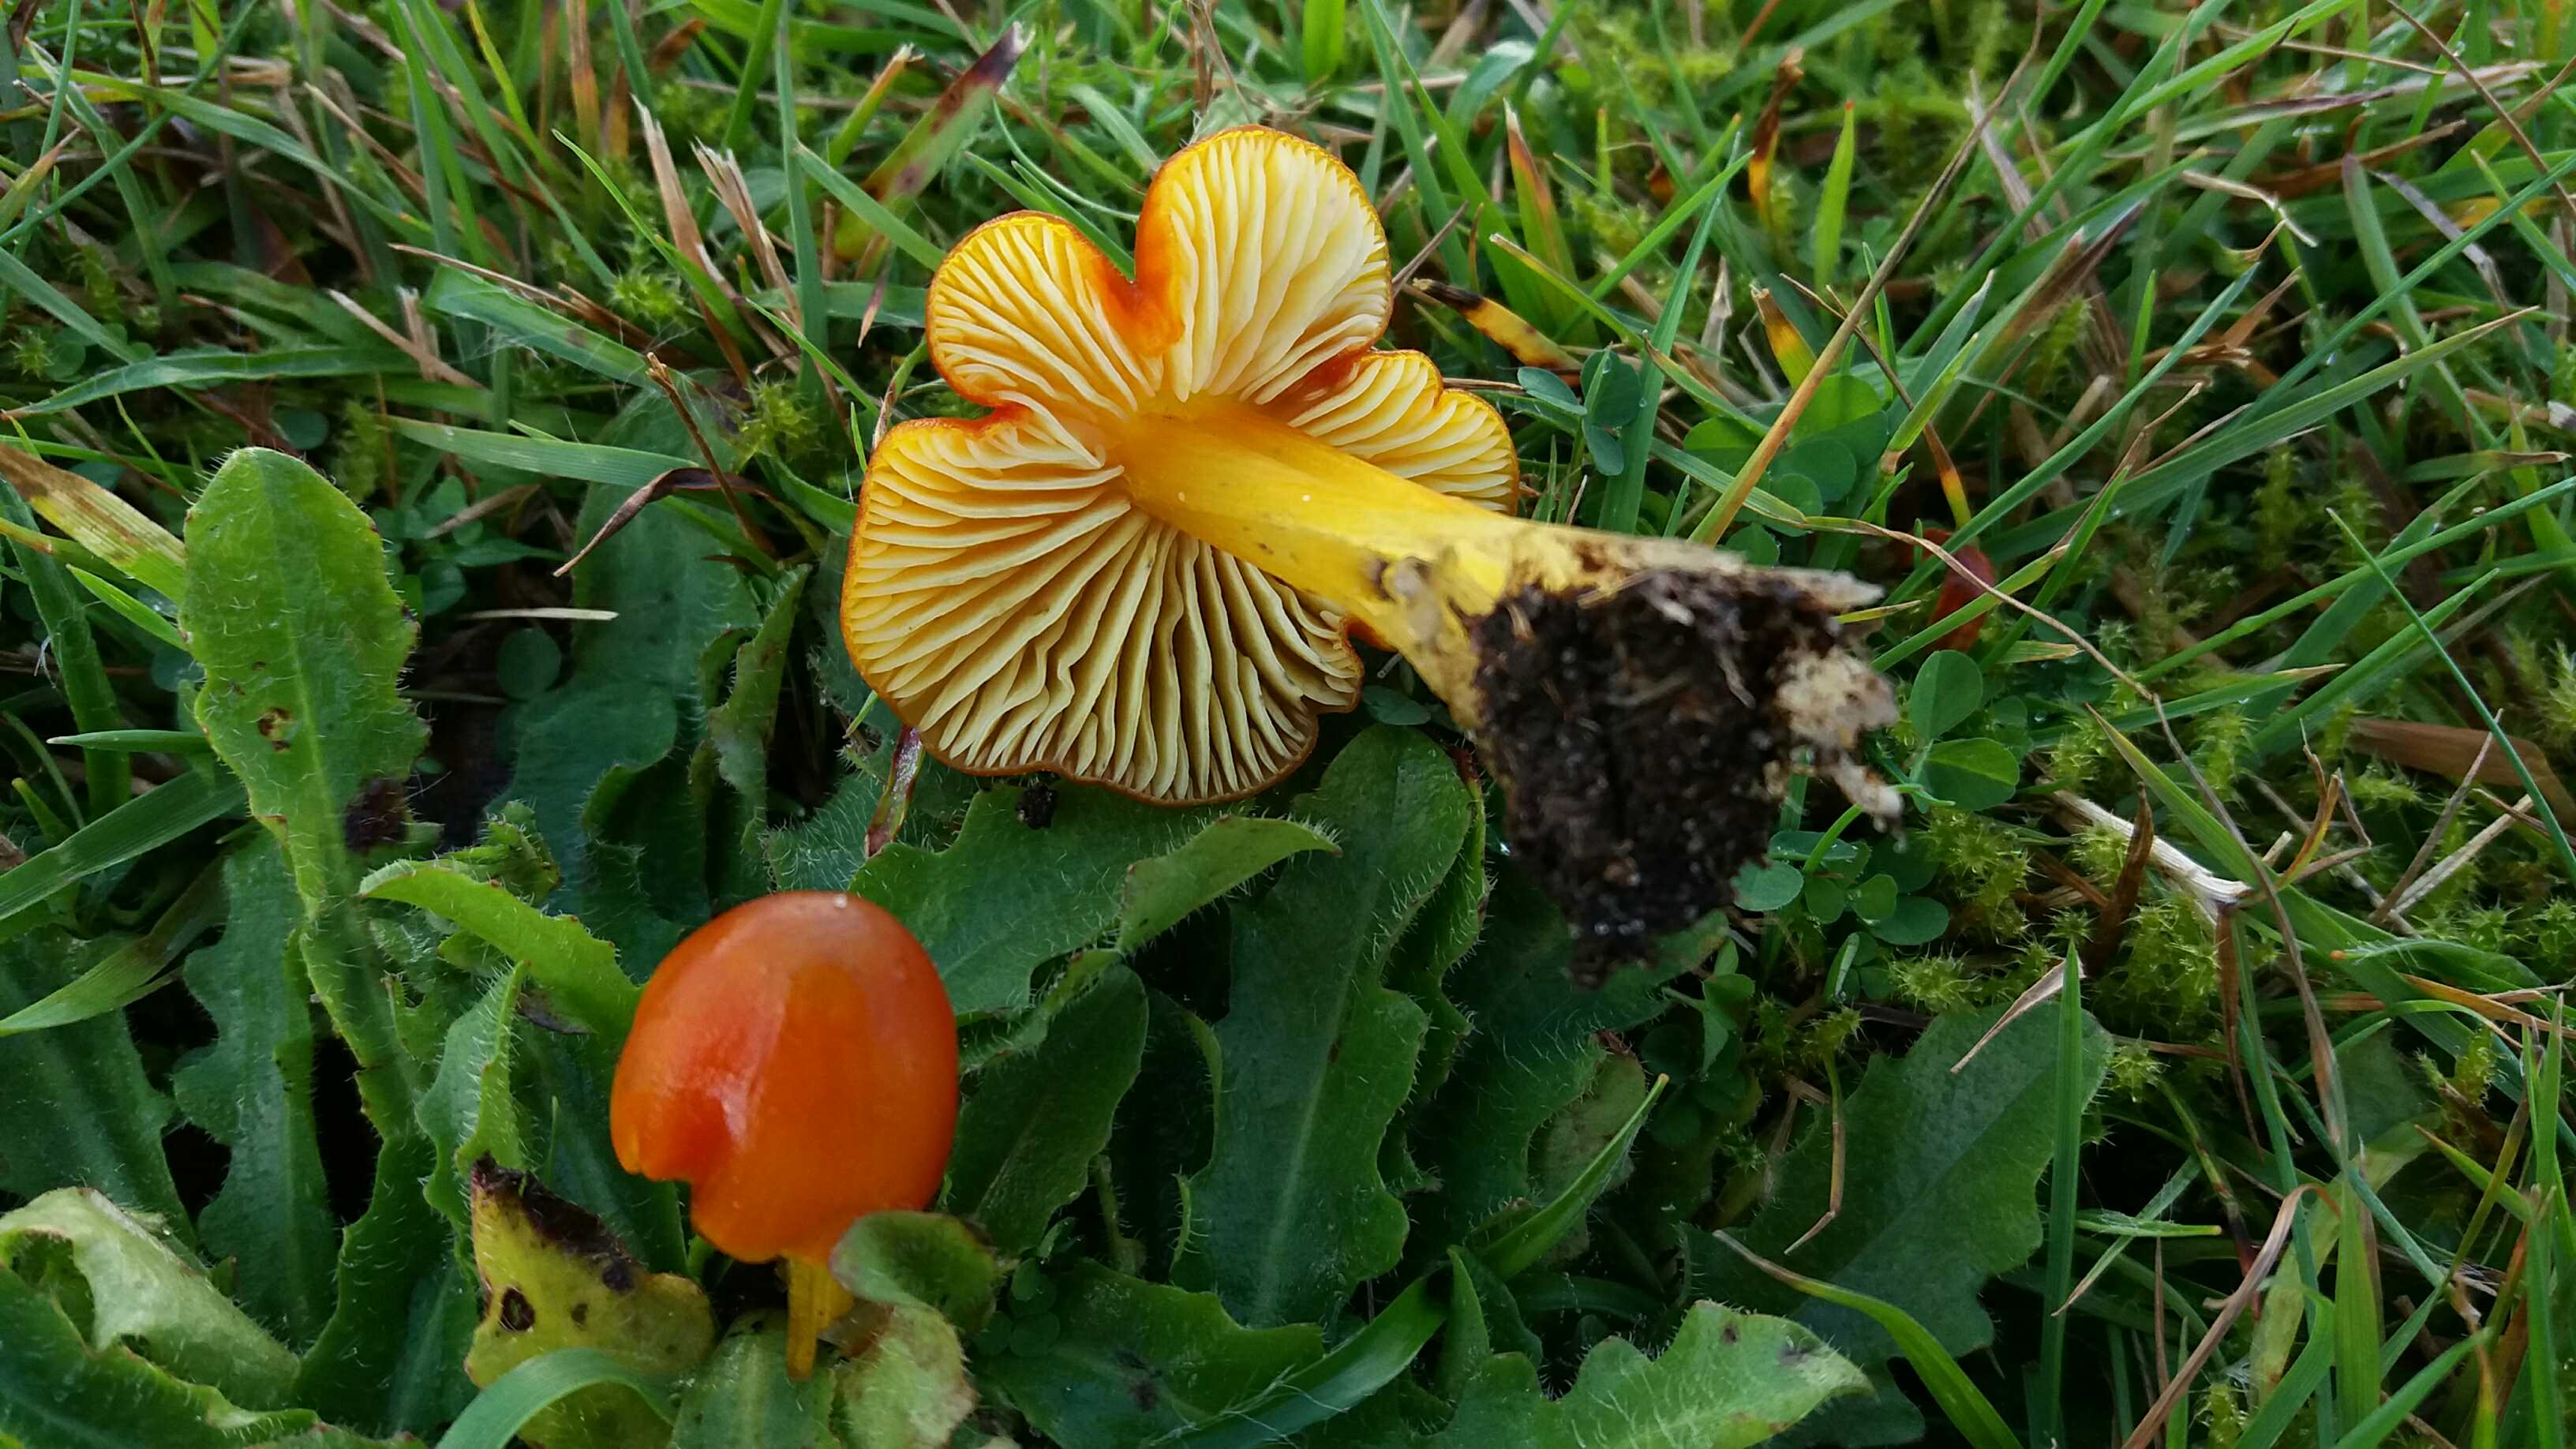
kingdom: Fungi
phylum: Basidiomycota
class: Agaricomycetes
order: Agaricales
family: Hygrophoraceae
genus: Hygrocybe
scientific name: Hygrocybe conica
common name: kegle-vokshat
